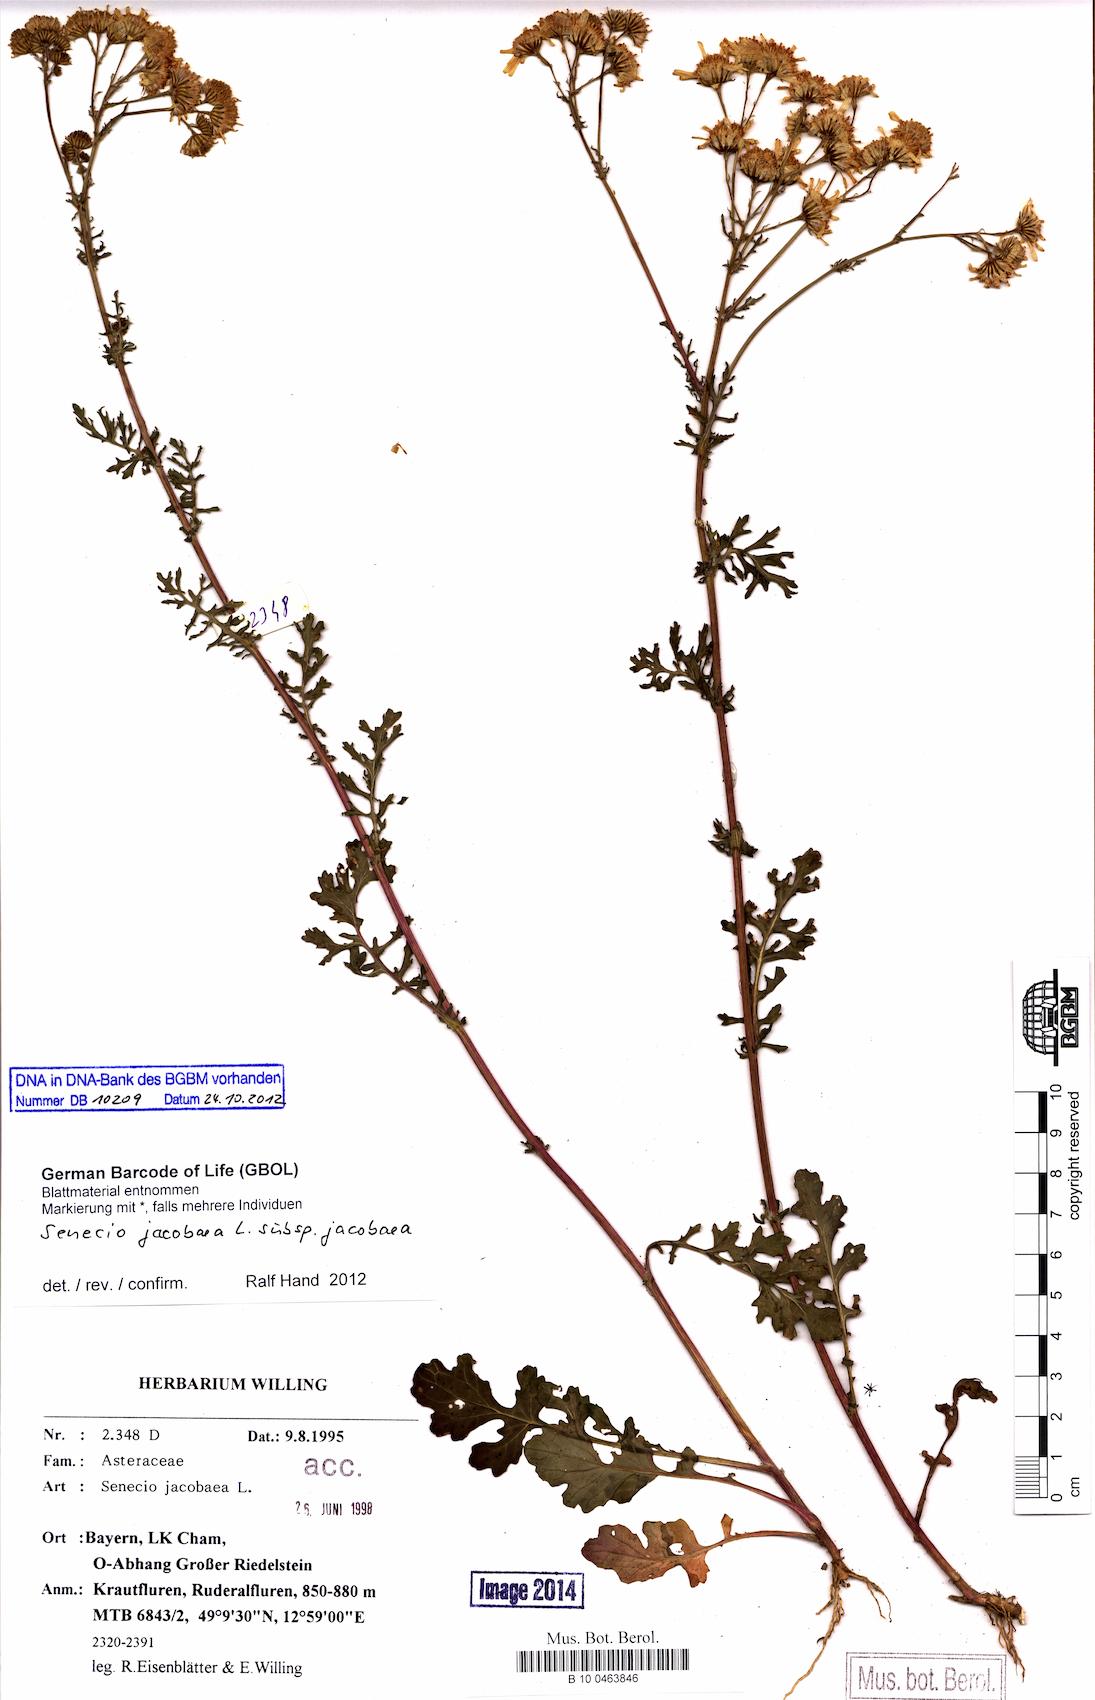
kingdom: Plantae
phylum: Tracheophyta
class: Magnoliopsida
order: Asterales
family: Asteraceae
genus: Jacobaea
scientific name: Jacobaea vulgaris
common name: Stinking willie
